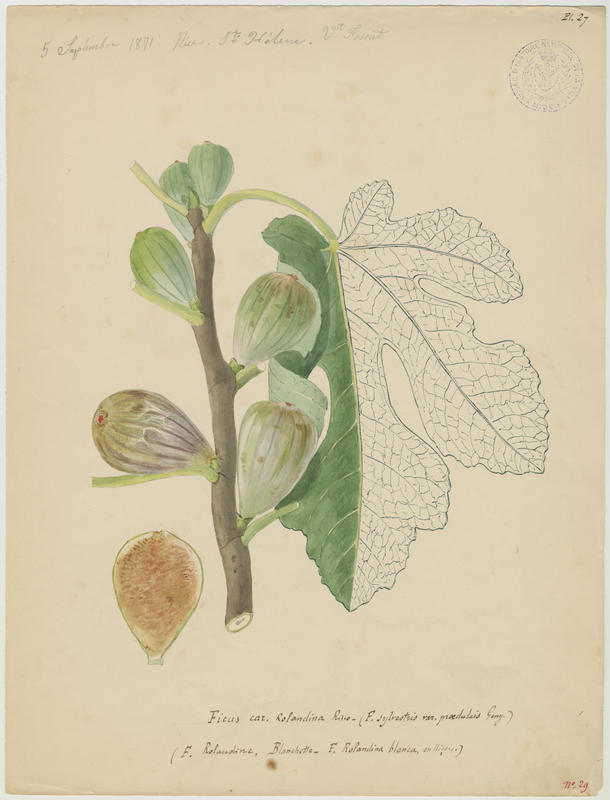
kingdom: Plantae
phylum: Tracheophyta
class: Magnoliopsida
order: Rosales
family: Moraceae
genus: Ficus
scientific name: Ficus carica
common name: Fig
